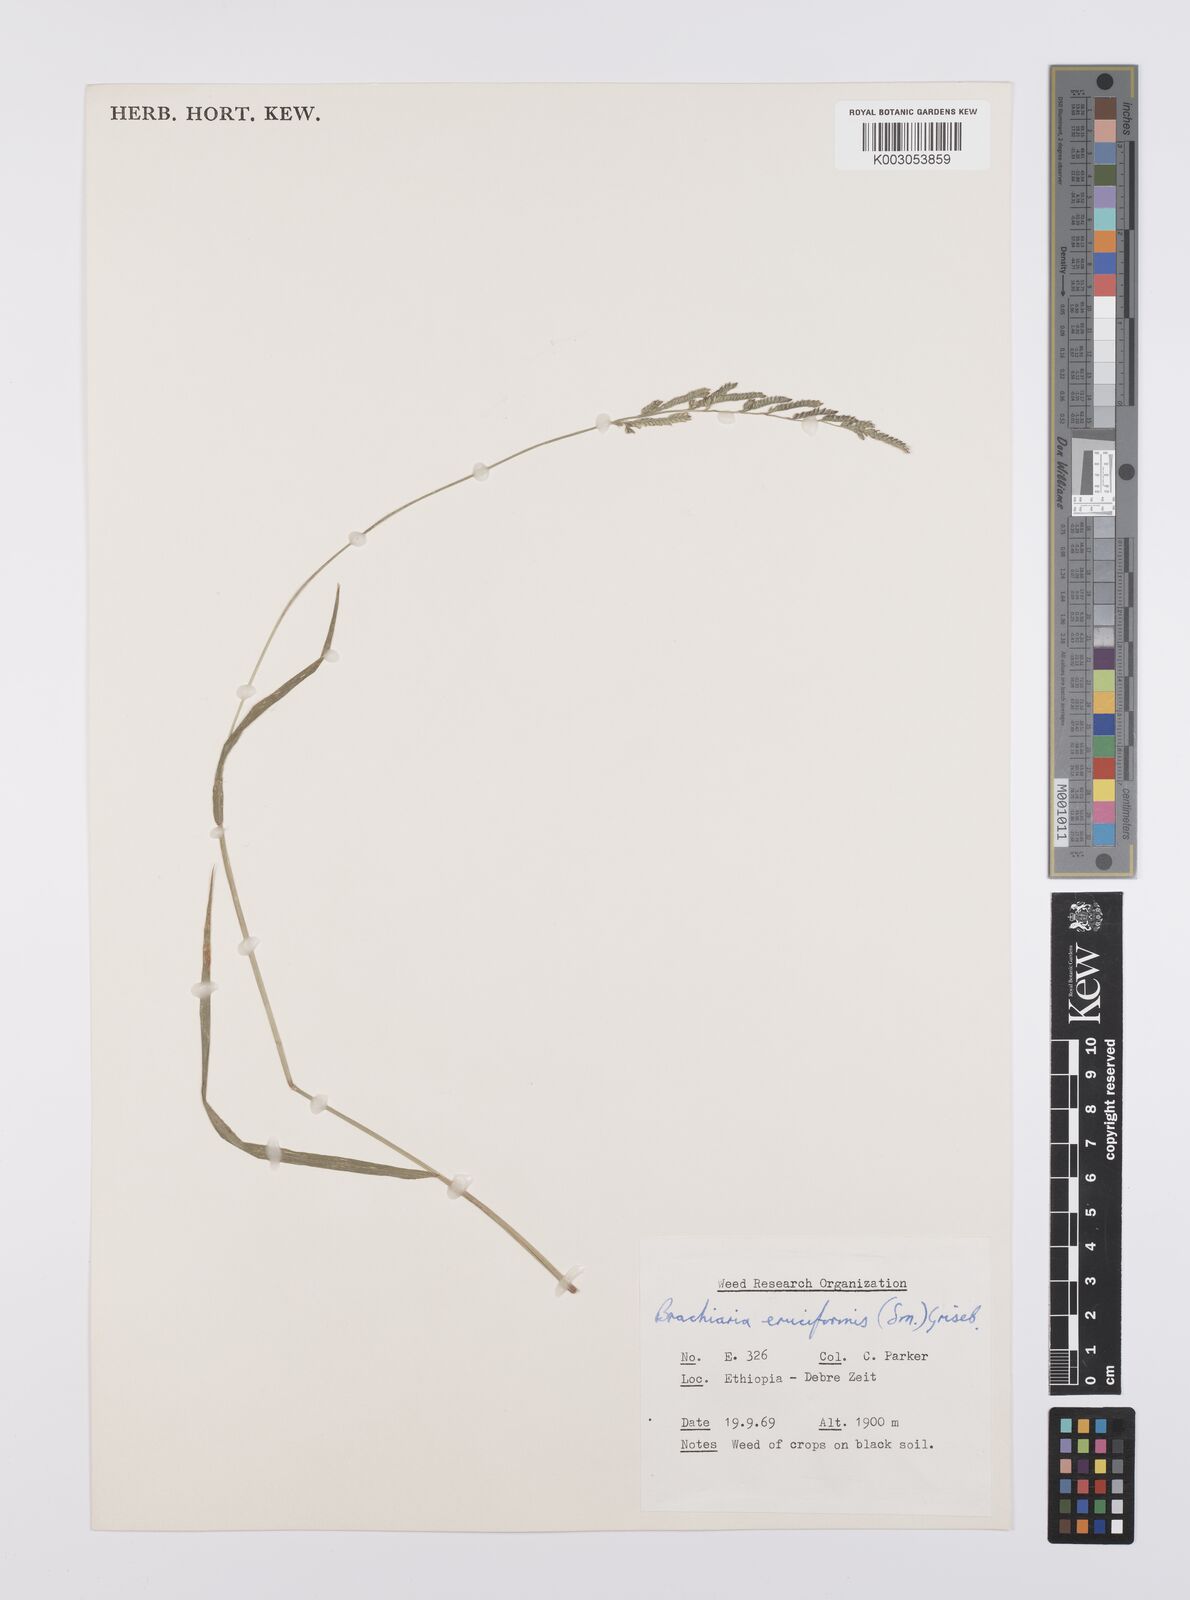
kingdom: Plantae
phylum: Tracheophyta
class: Liliopsida
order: Poales
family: Poaceae
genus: Moorochloa
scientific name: Moorochloa eruciformis
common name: Sweet signalgrass
